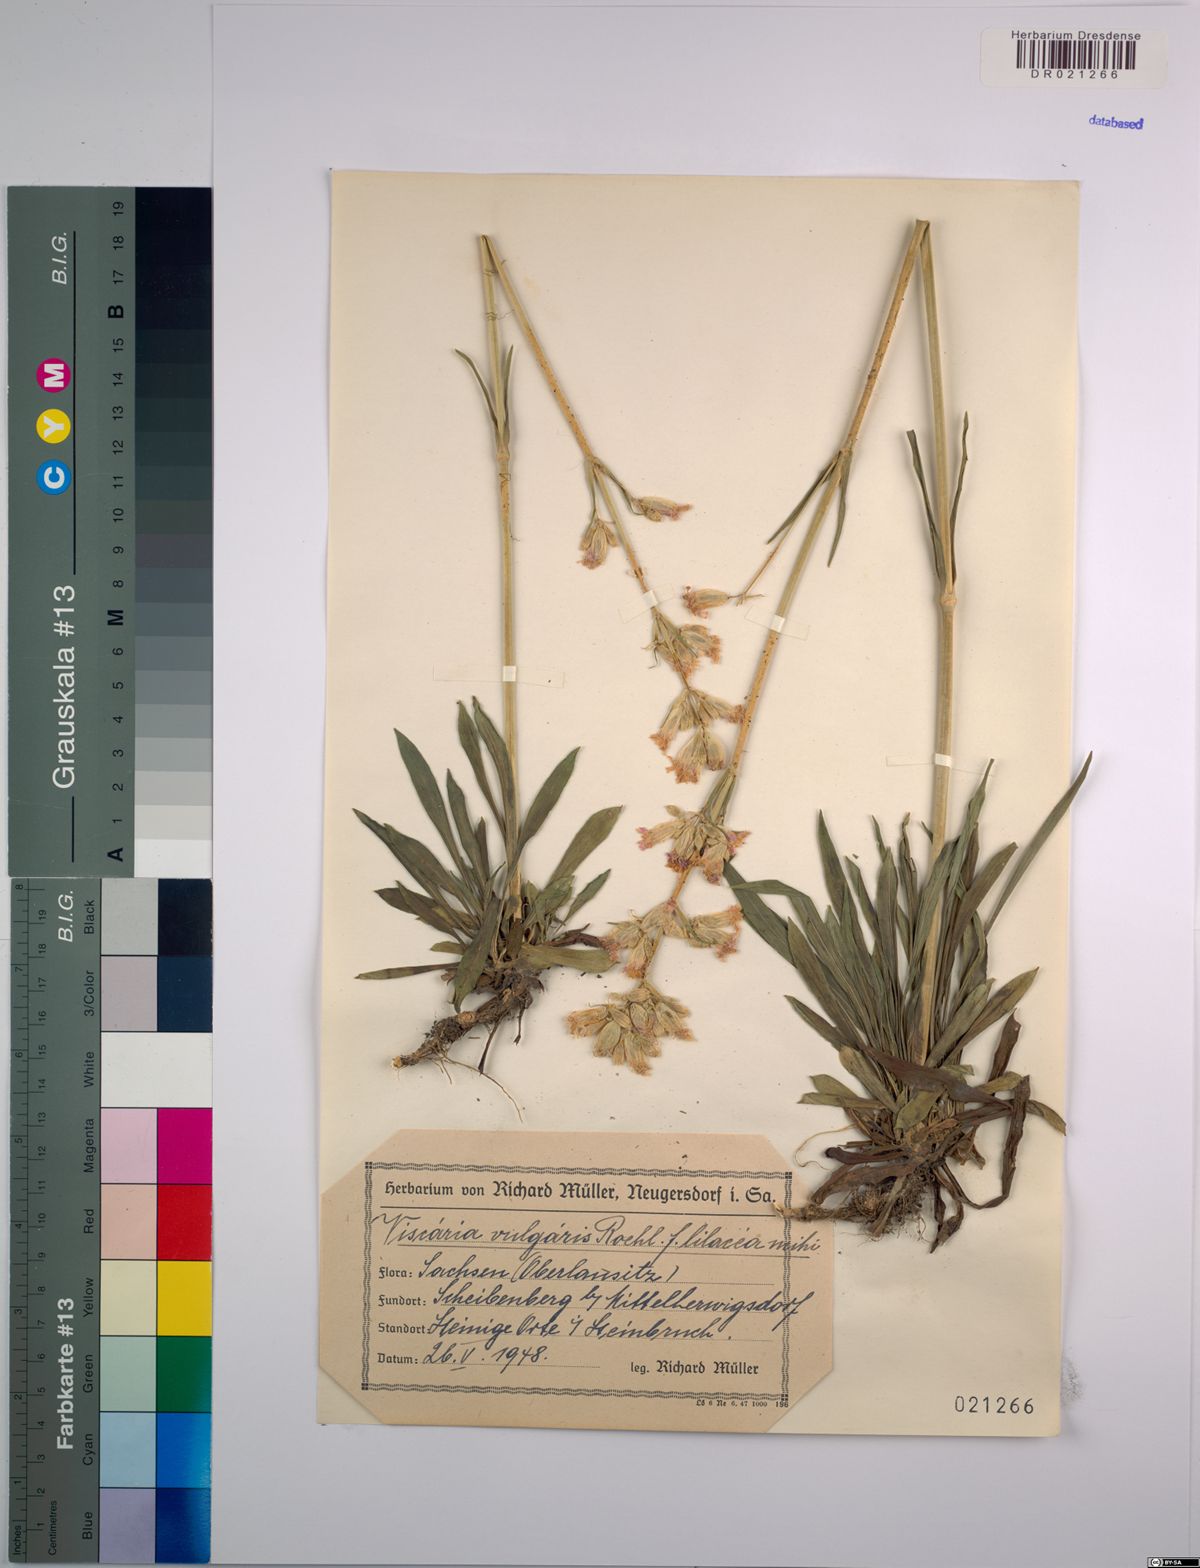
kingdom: Plantae
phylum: Tracheophyta
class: Magnoliopsida
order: Caryophyllales
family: Caryophyllaceae
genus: Viscaria
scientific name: Viscaria vulgaris
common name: Clammy campion
